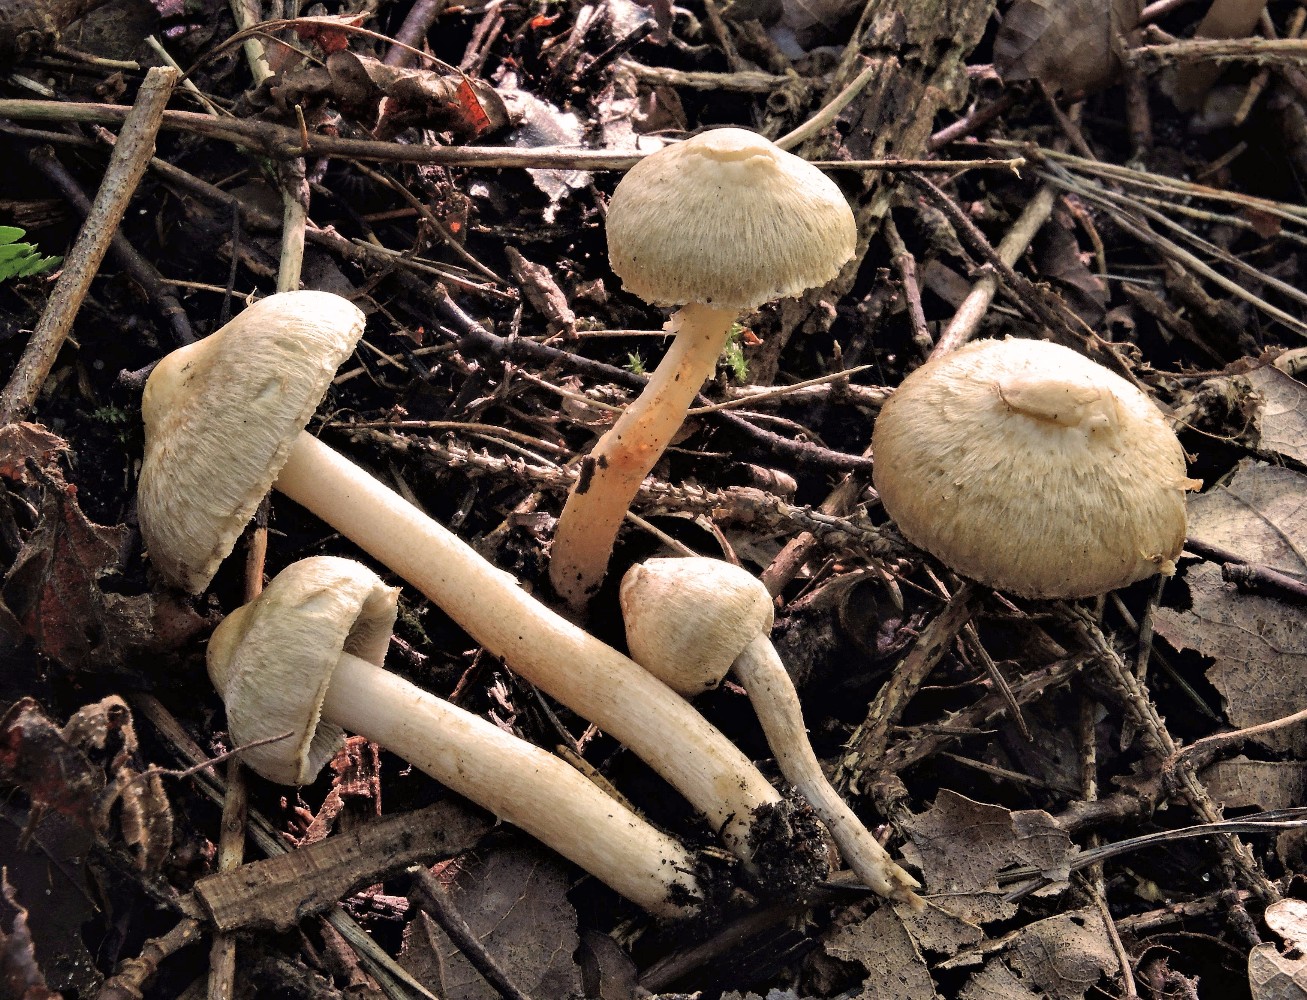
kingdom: Fungi
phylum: Basidiomycota
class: Agaricomycetes
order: Agaricales
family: Inocybaceae
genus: Inocybe
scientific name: Inocybe appendiculata
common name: tandet trævlhat
